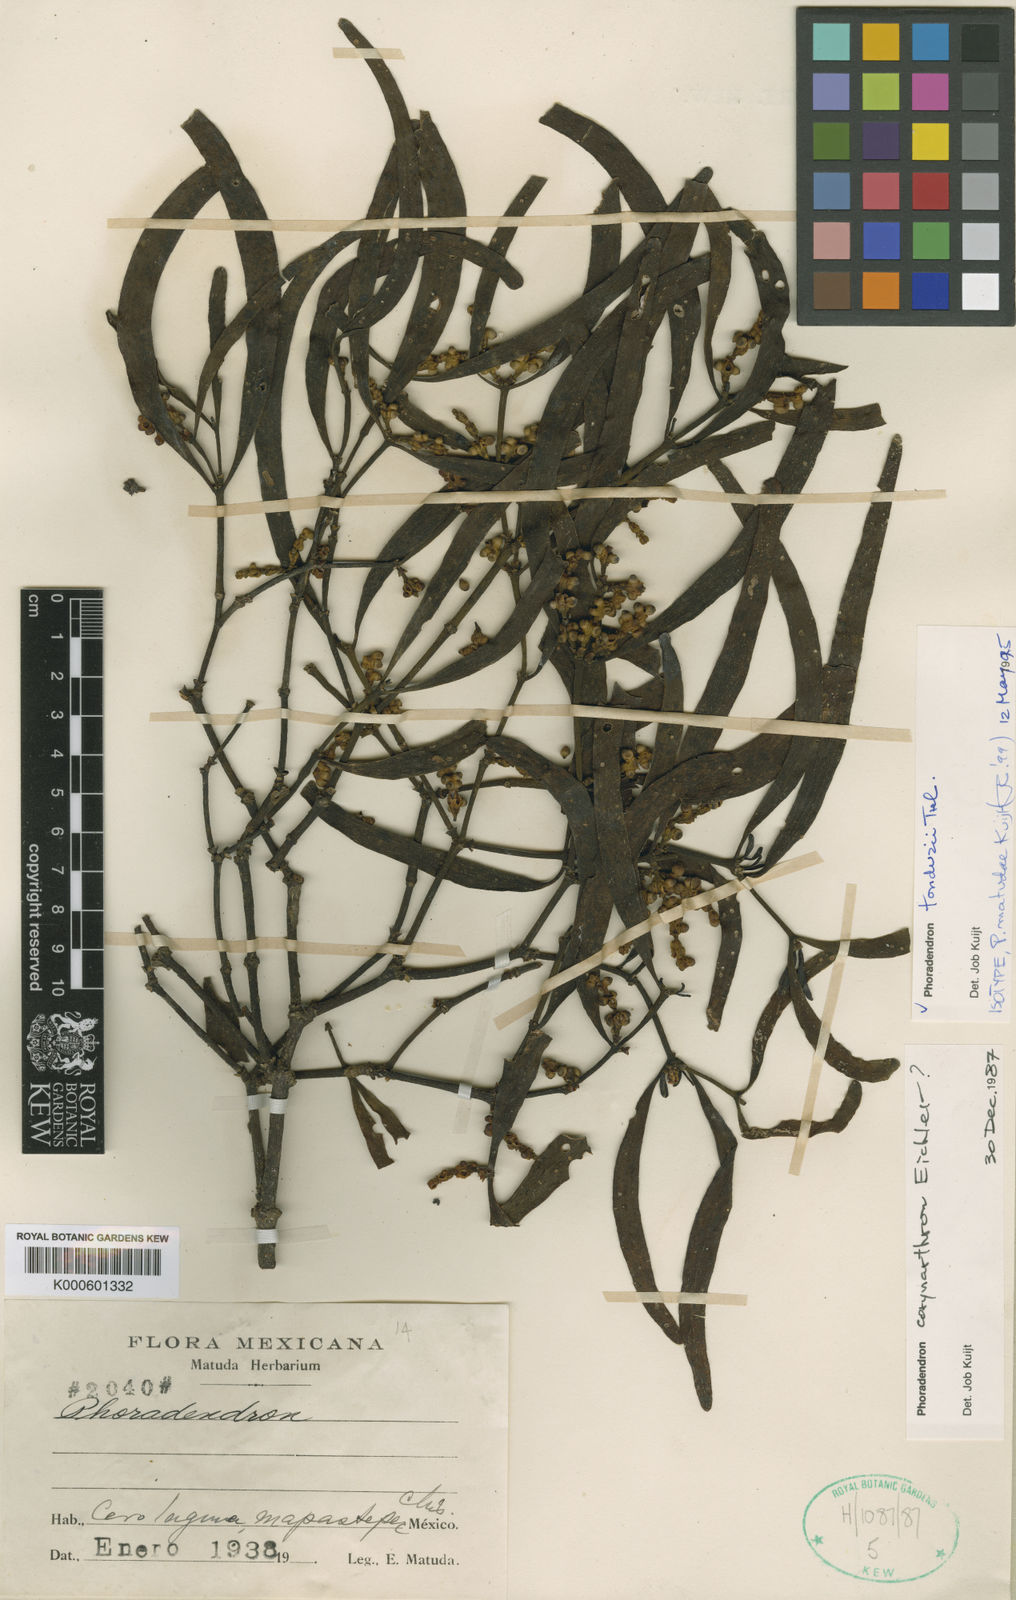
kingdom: Plantae
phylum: Tracheophyta
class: Magnoliopsida
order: Santalales
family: Viscaceae
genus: Phoradendron
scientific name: Phoradendron tonduzii
